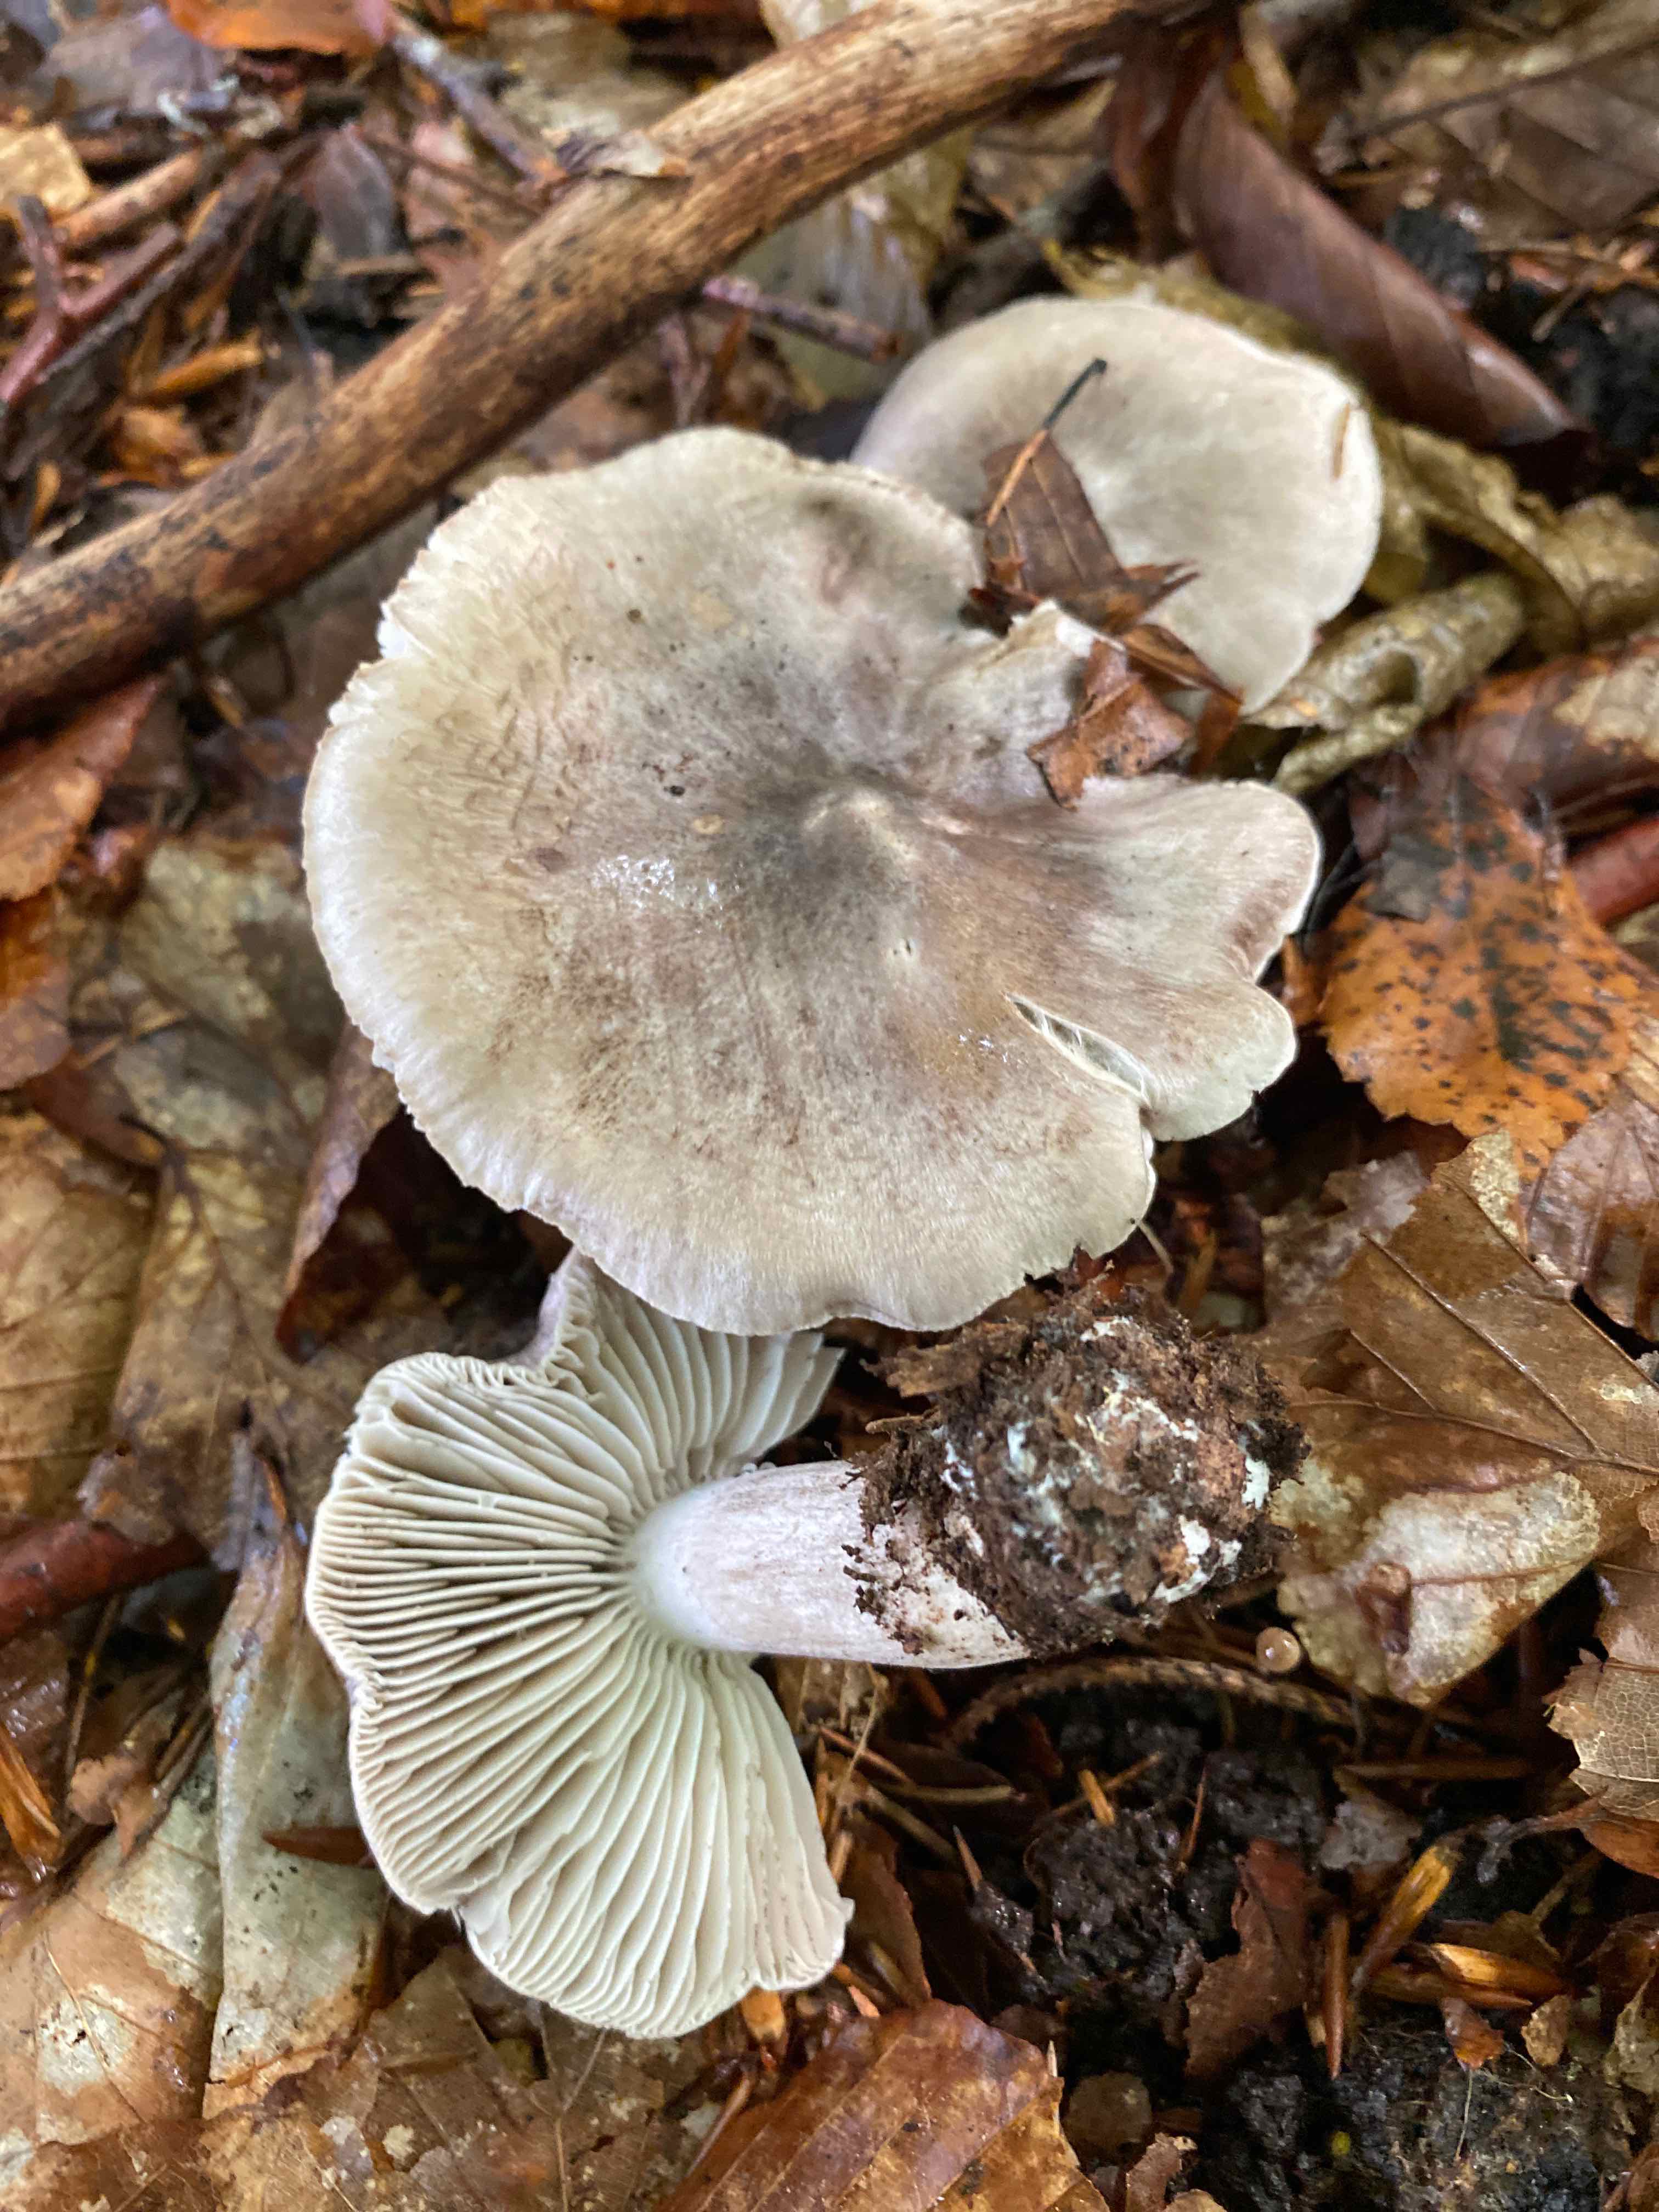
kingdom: Fungi
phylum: Basidiomycota
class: Agaricomycetes
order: Agaricales
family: Tricholomataceae
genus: Tricholoma
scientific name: Tricholoma sciodes
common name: stribet ridderhat
